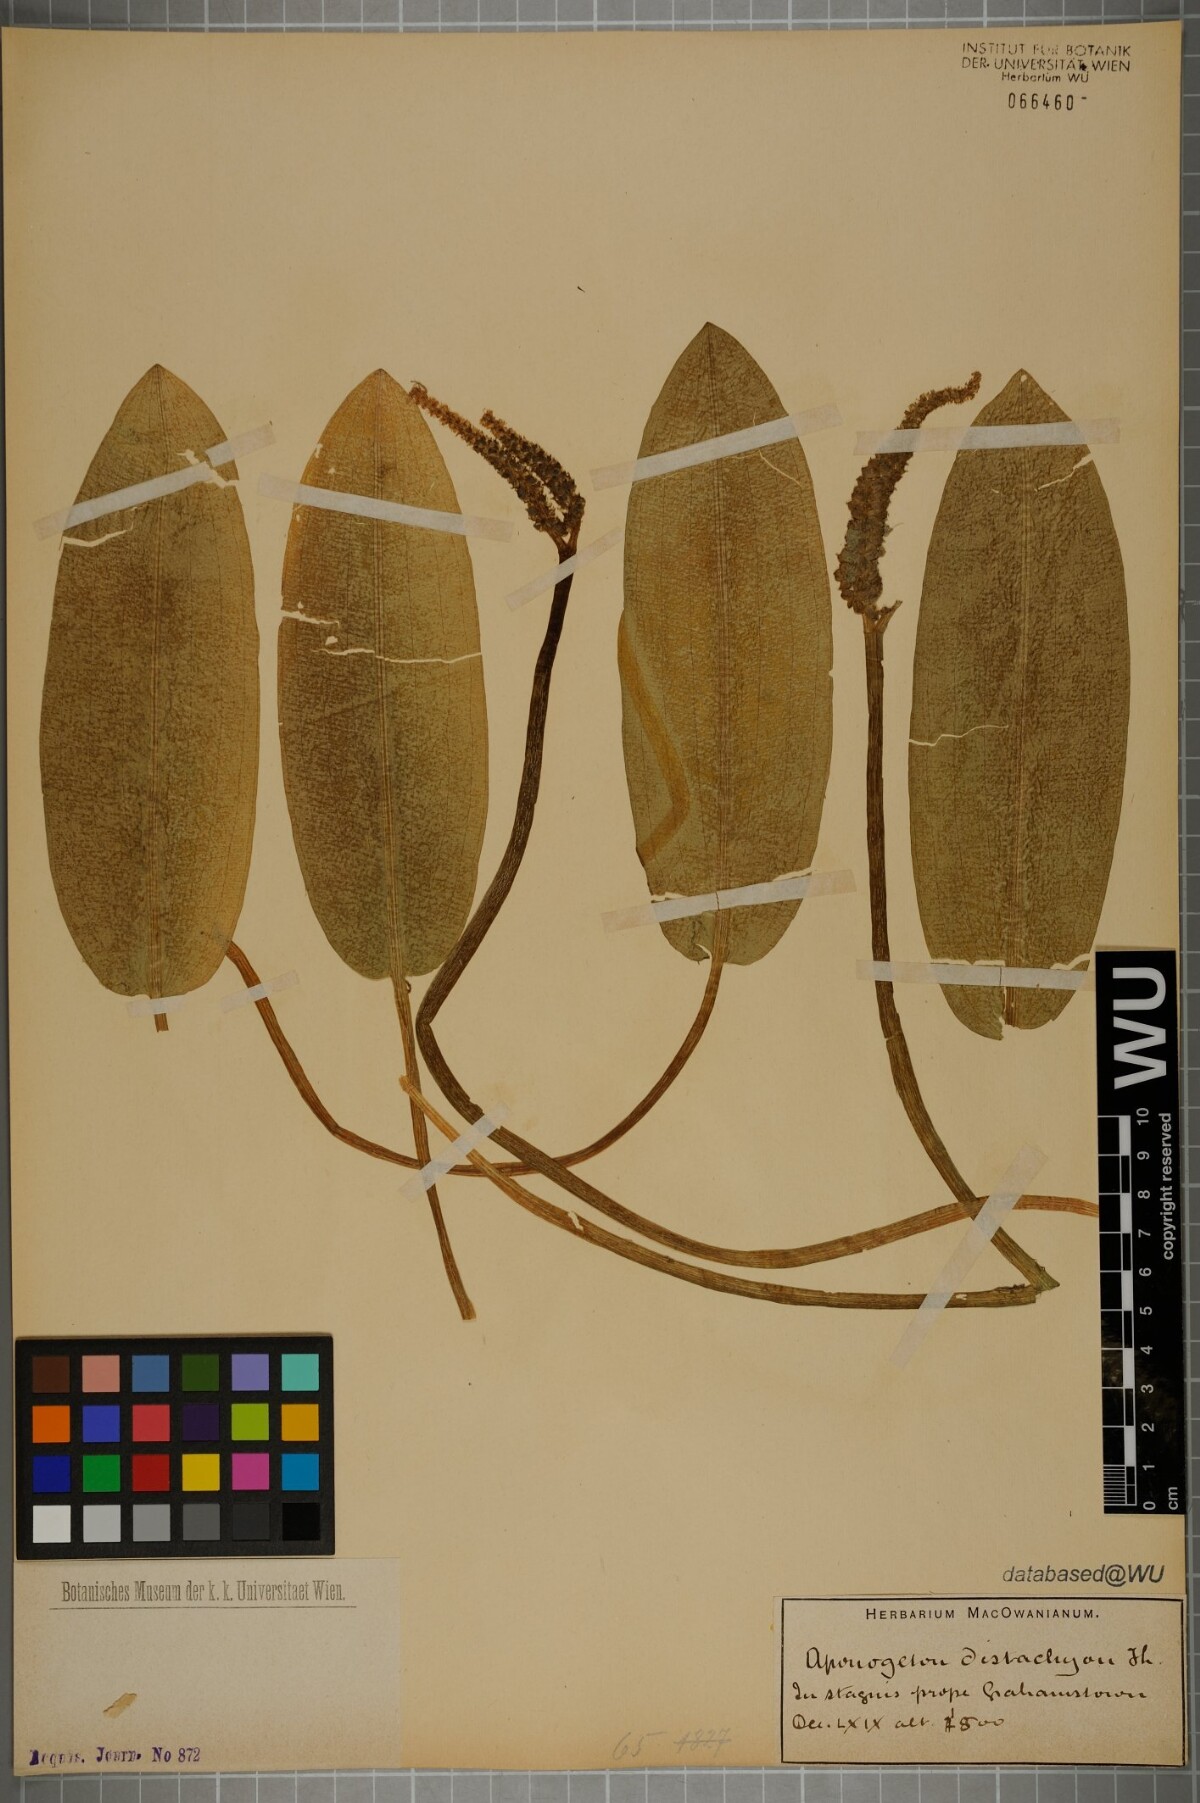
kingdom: Plantae
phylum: Tracheophyta
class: Liliopsida
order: Alismatales
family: Aponogetonaceae
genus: Aponogeton
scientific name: Aponogeton distachyos
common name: Cape-pondweed
